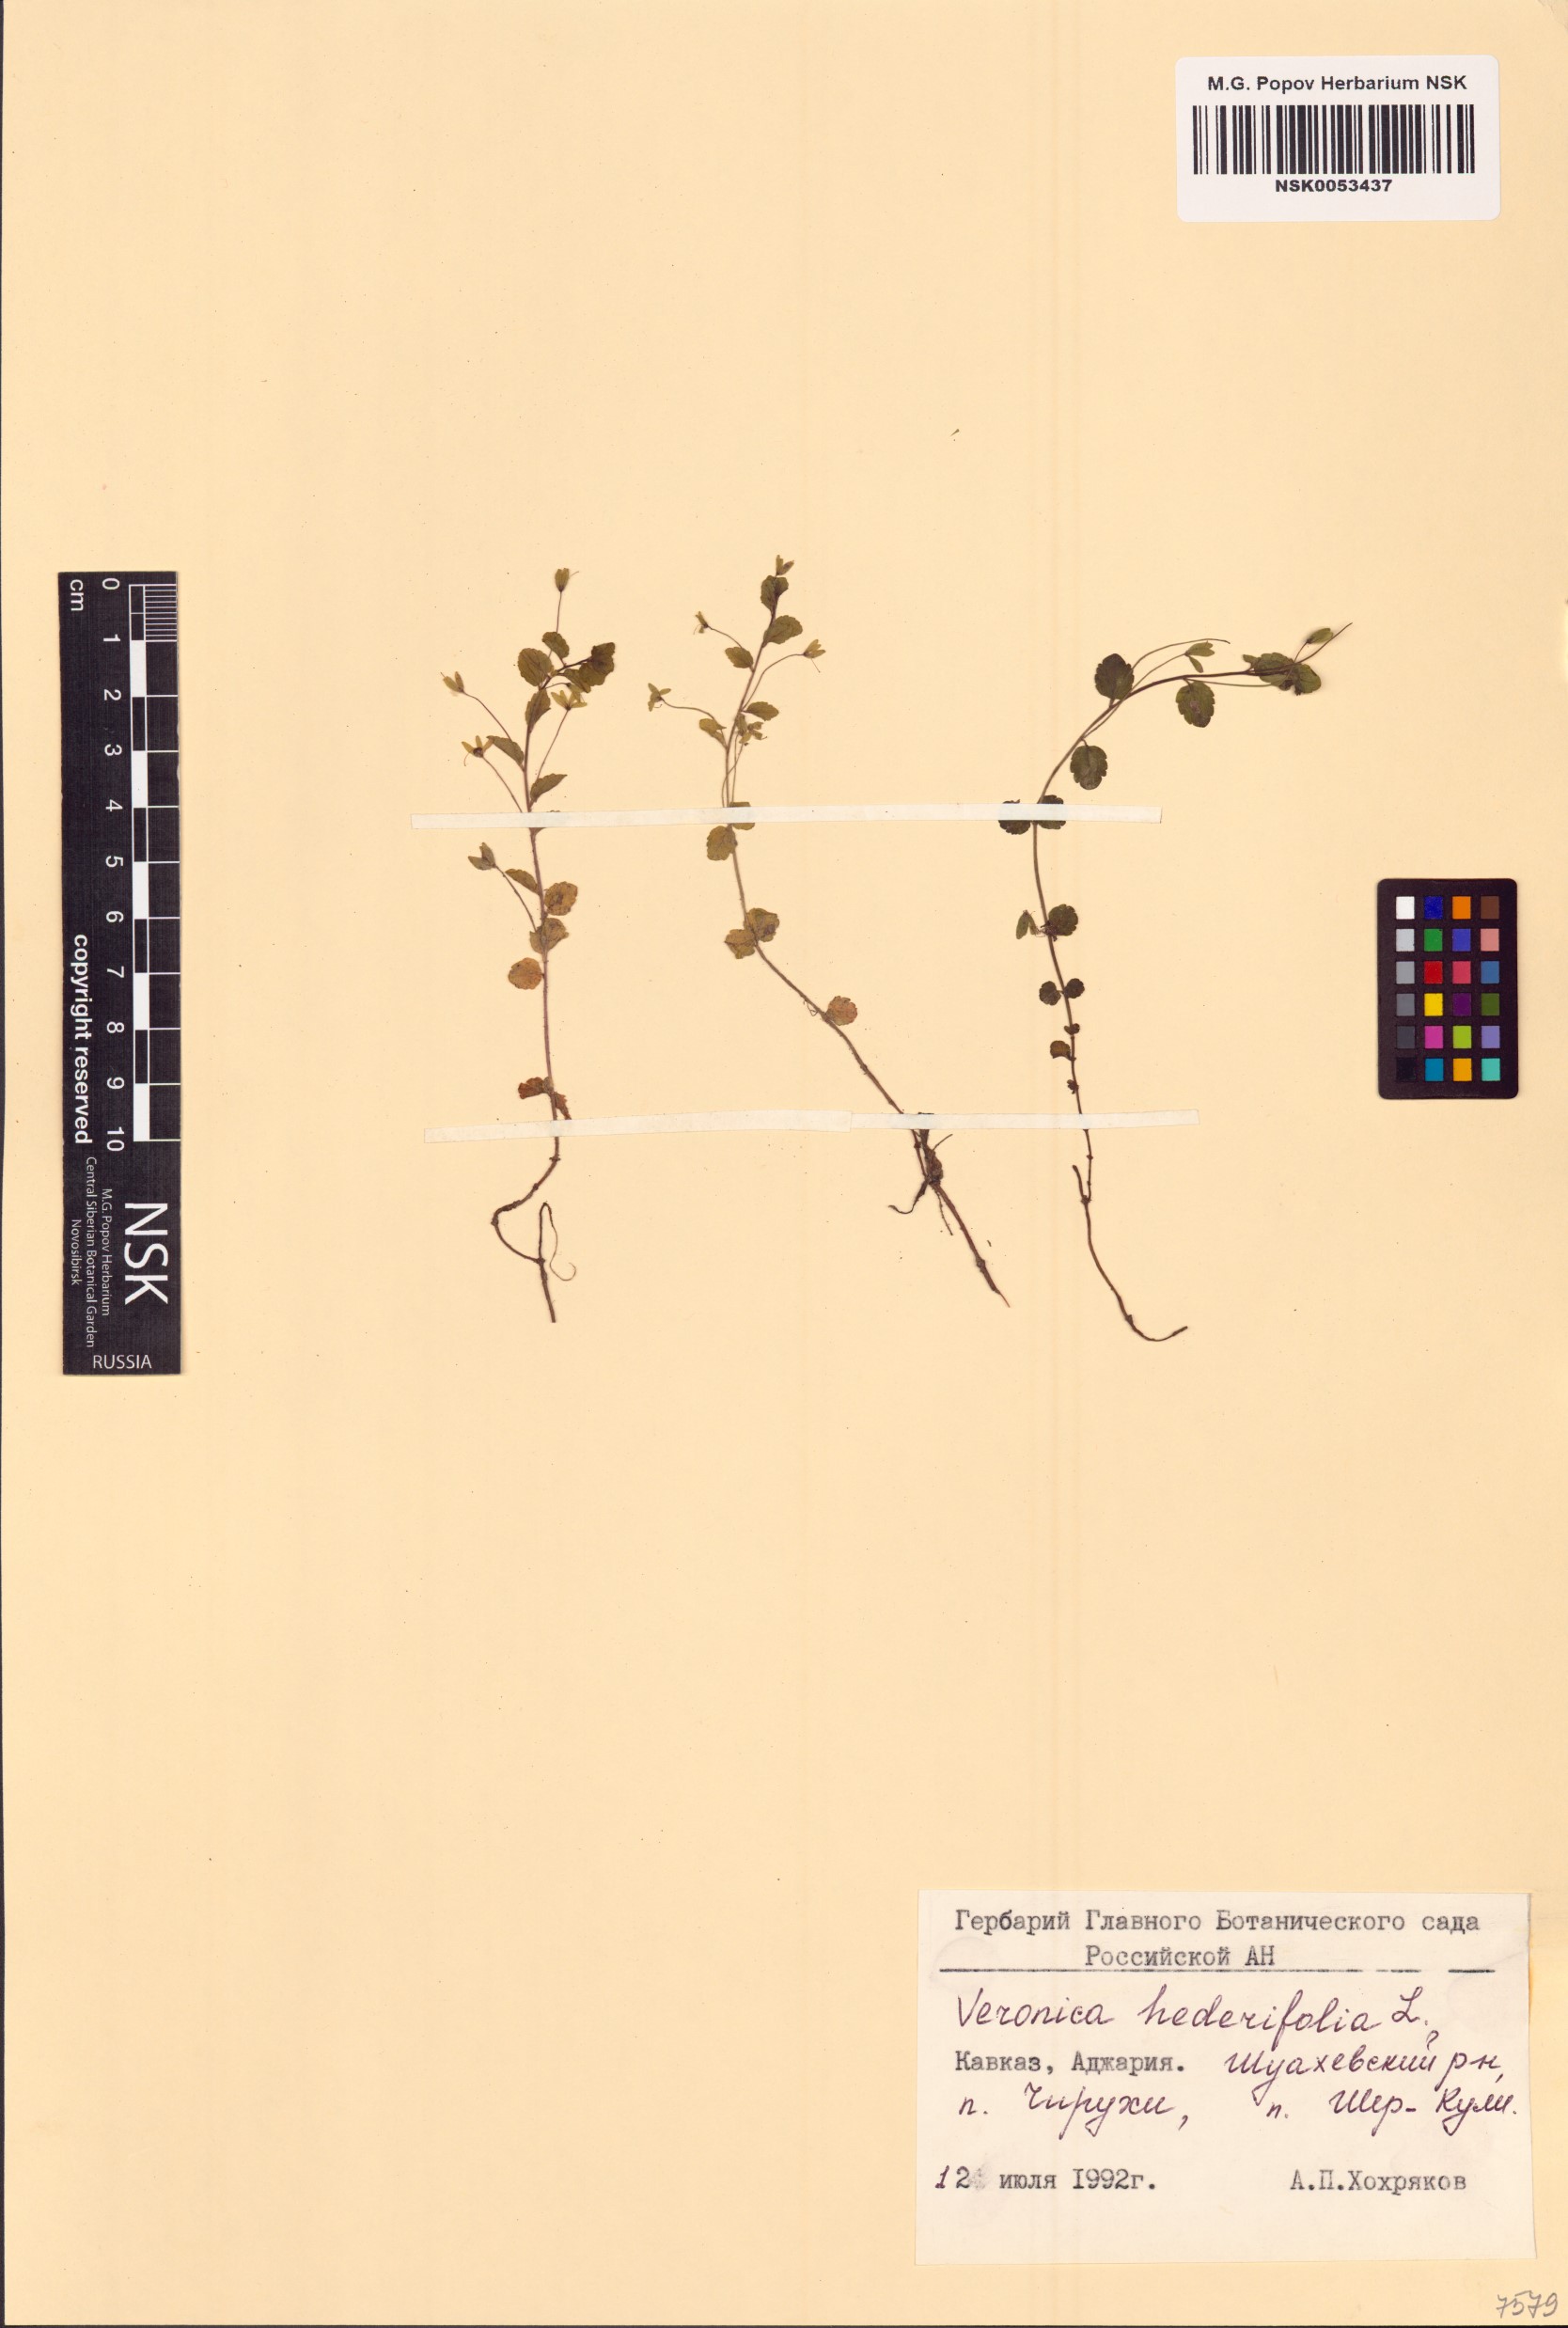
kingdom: Plantae
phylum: Tracheophyta
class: Magnoliopsida
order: Lamiales
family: Plantaginaceae
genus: Veronica
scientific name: Veronica hederifolia
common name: Ivy-leaved speedwell
